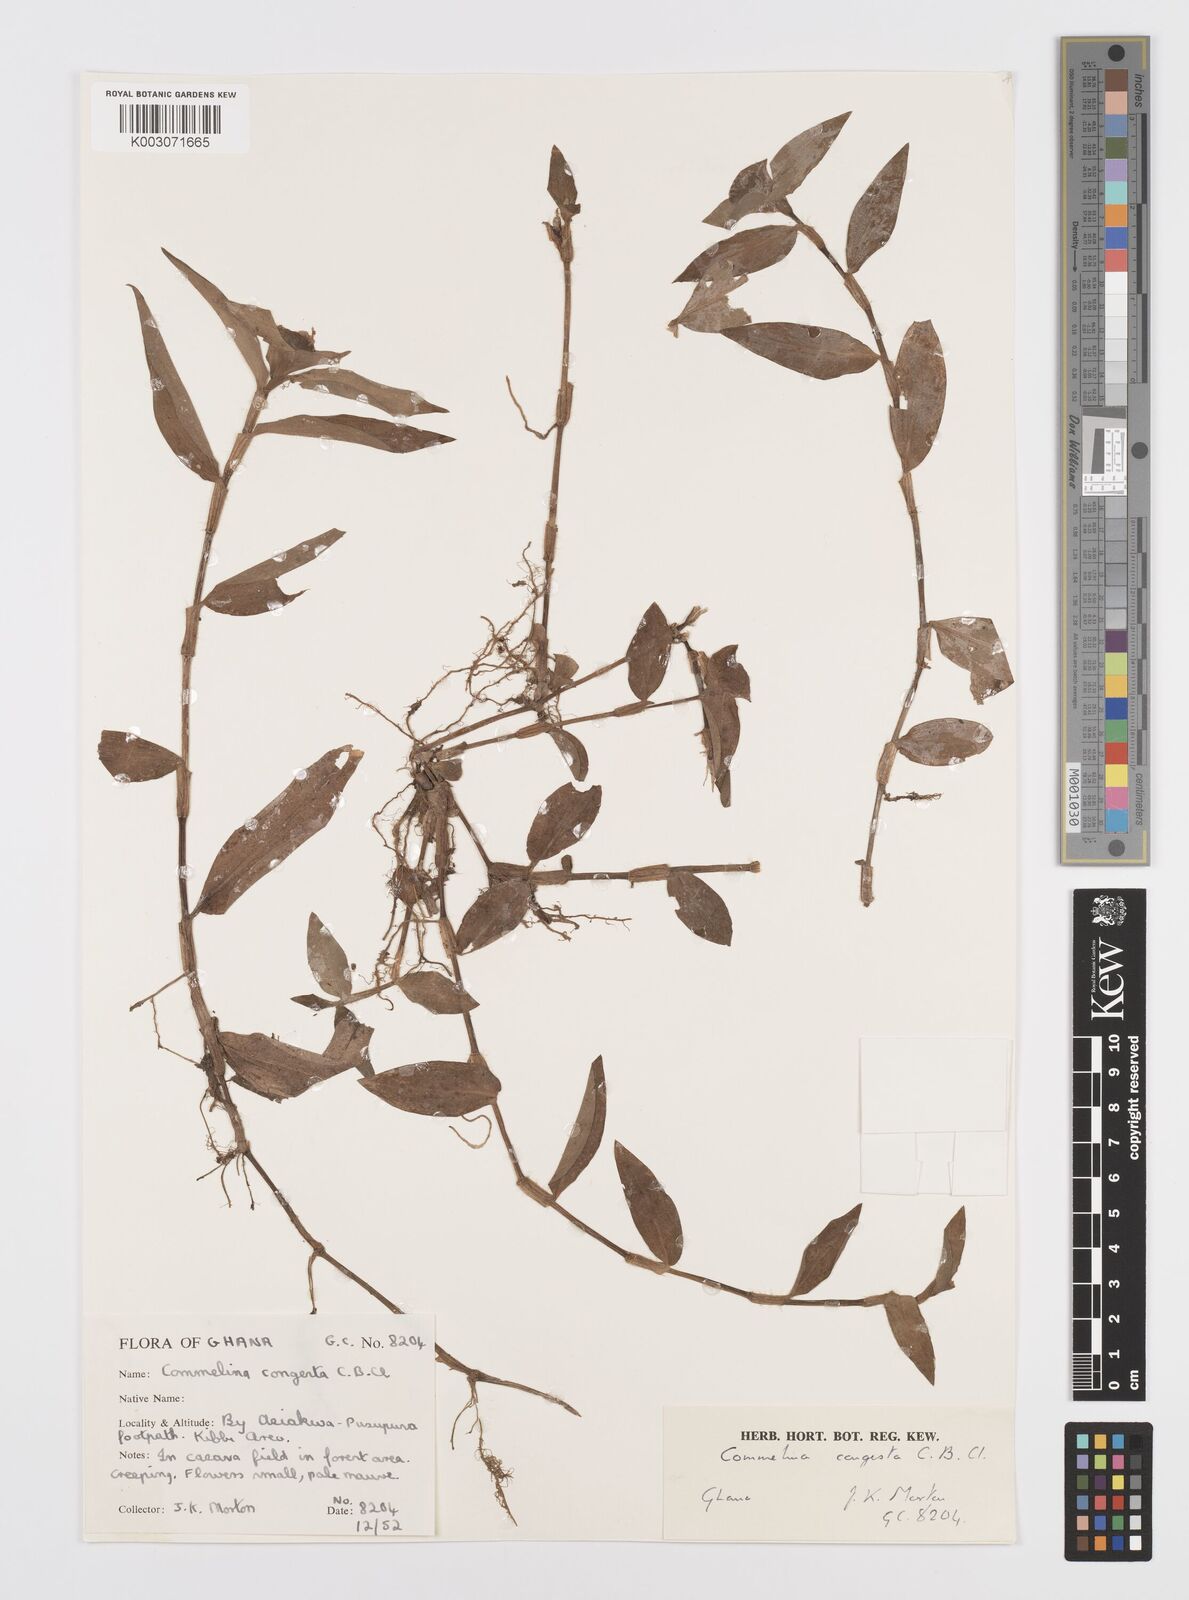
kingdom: Plantae
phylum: Tracheophyta
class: Liliopsida
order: Commelinales
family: Commelinaceae
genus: Commelina
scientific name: Commelina congesta
